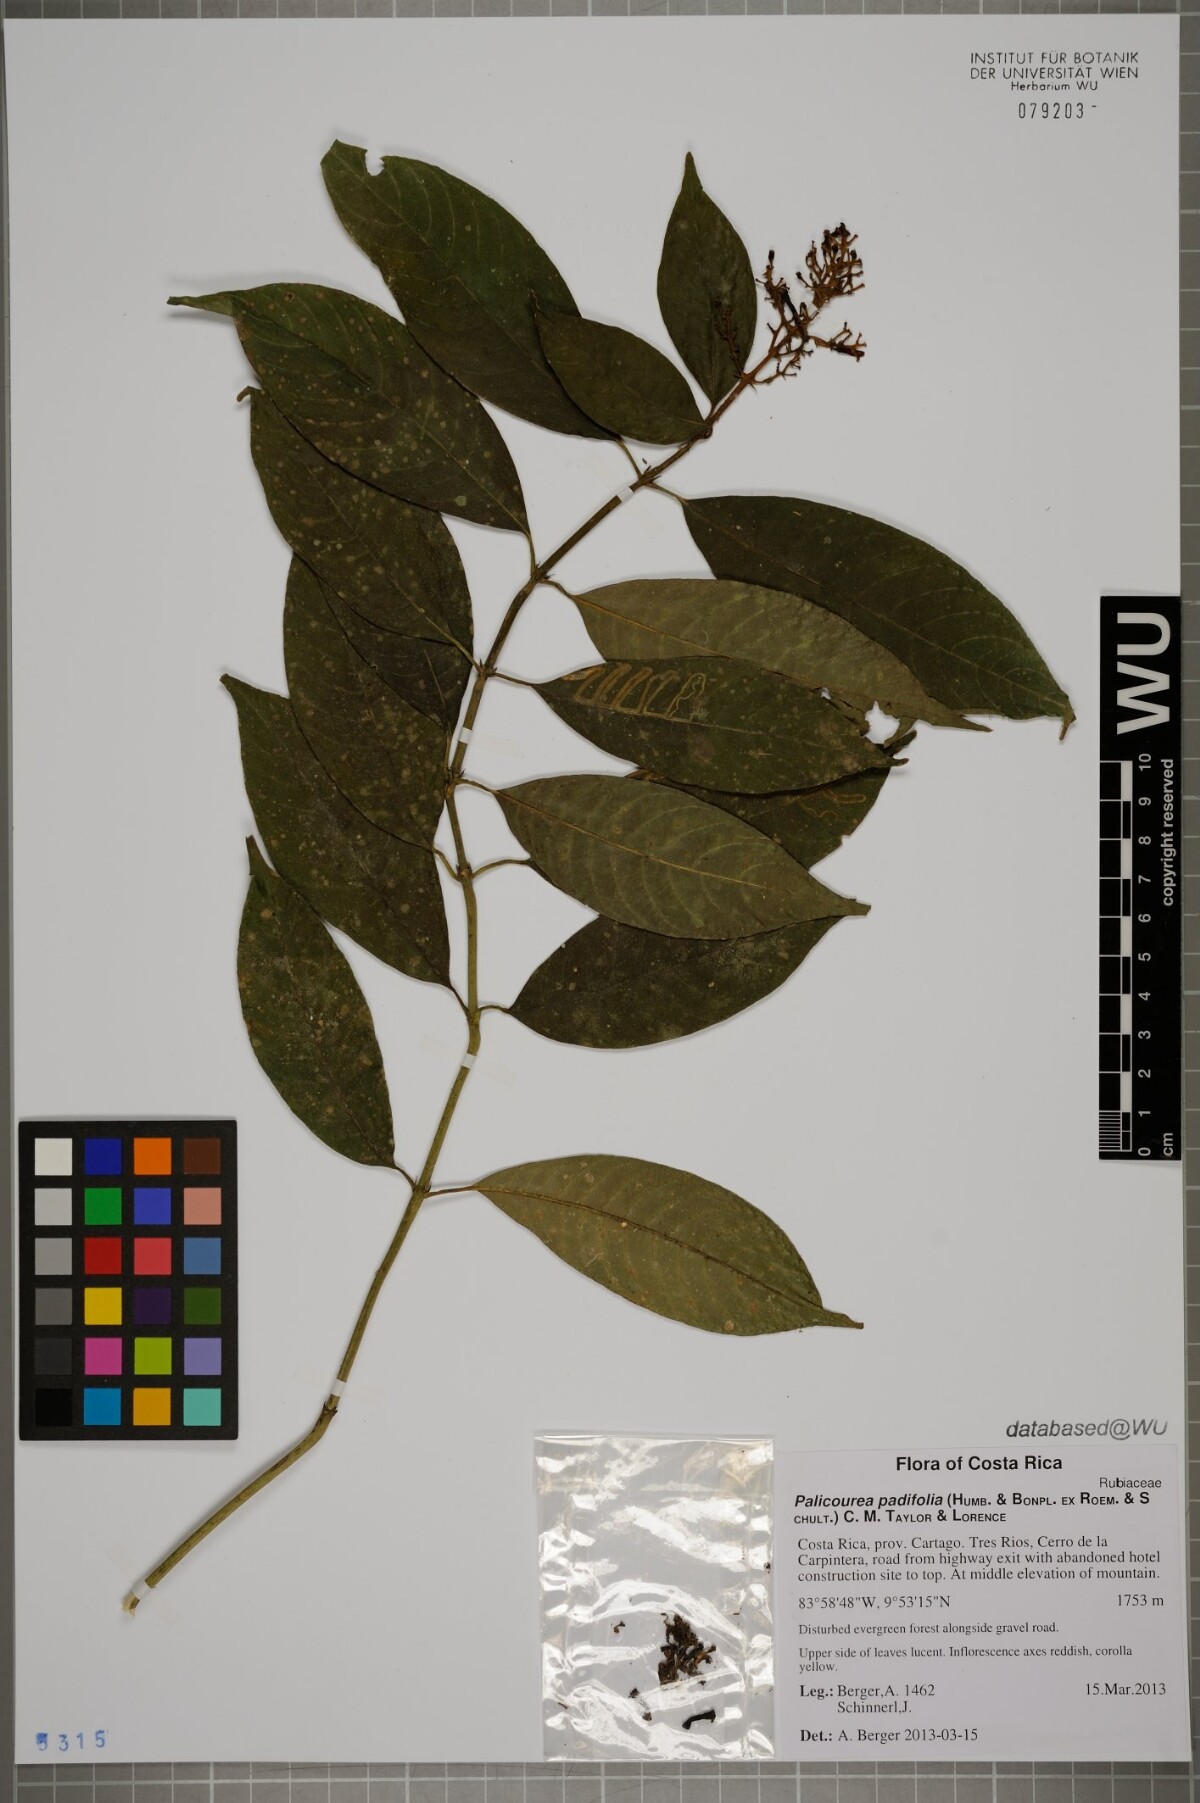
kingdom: Plantae
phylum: Tracheophyta
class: Magnoliopsida
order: Gentianales
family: Rubiaceae
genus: Palicourea
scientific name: Palicourea padifolia
